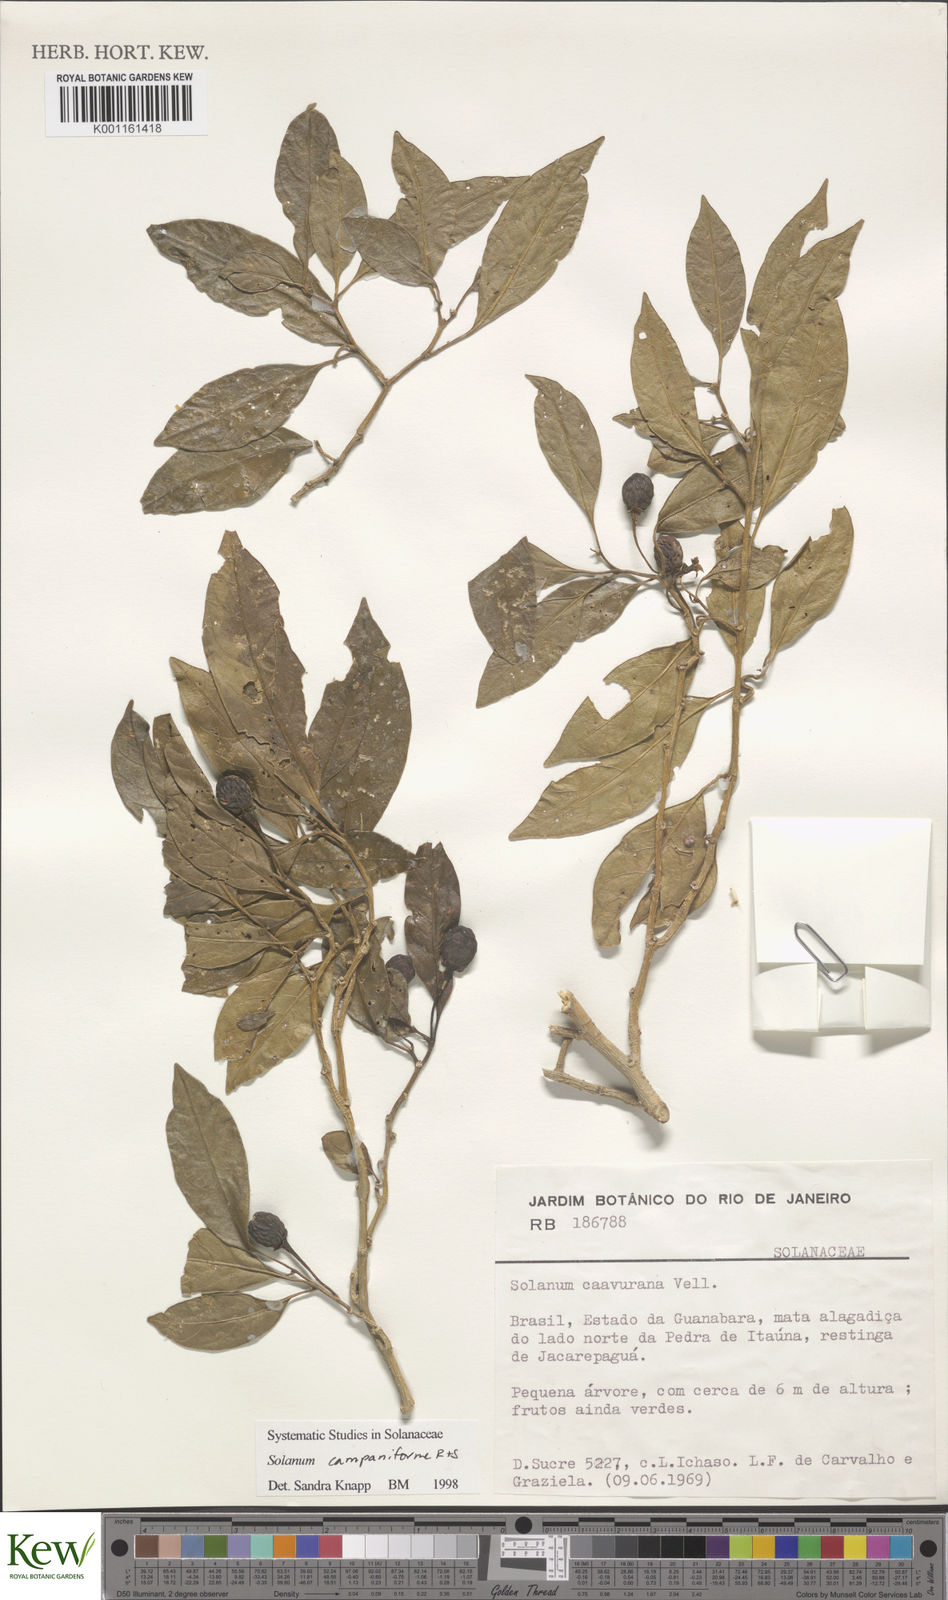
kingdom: Plantae
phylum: Tracheophyta
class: Magnoliopsida
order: Solanales
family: Solanaceae
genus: Solanum
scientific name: Solanum campaniforme
